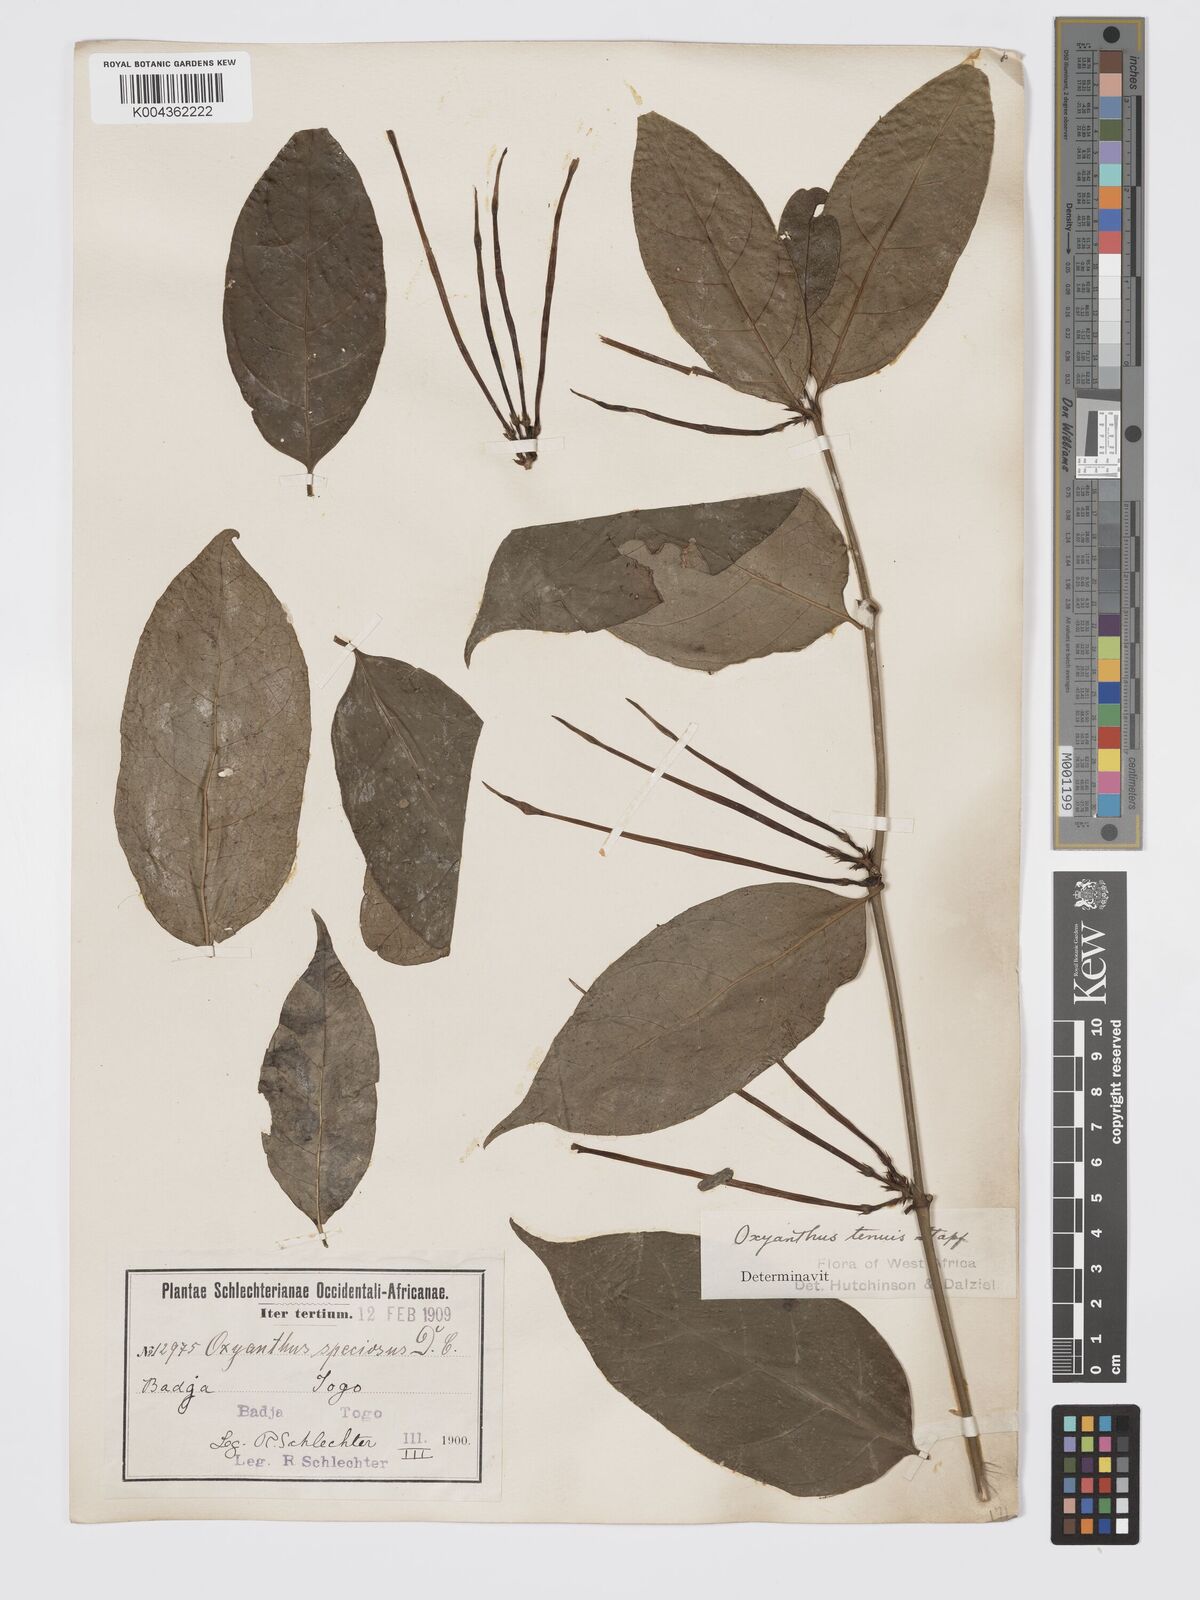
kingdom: Plantae
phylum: Tracheophyta
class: Magnoliopsida
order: Gentianales
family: Rubiaceae
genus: Oxyanthus
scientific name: Oxyanthus subpunctatus
